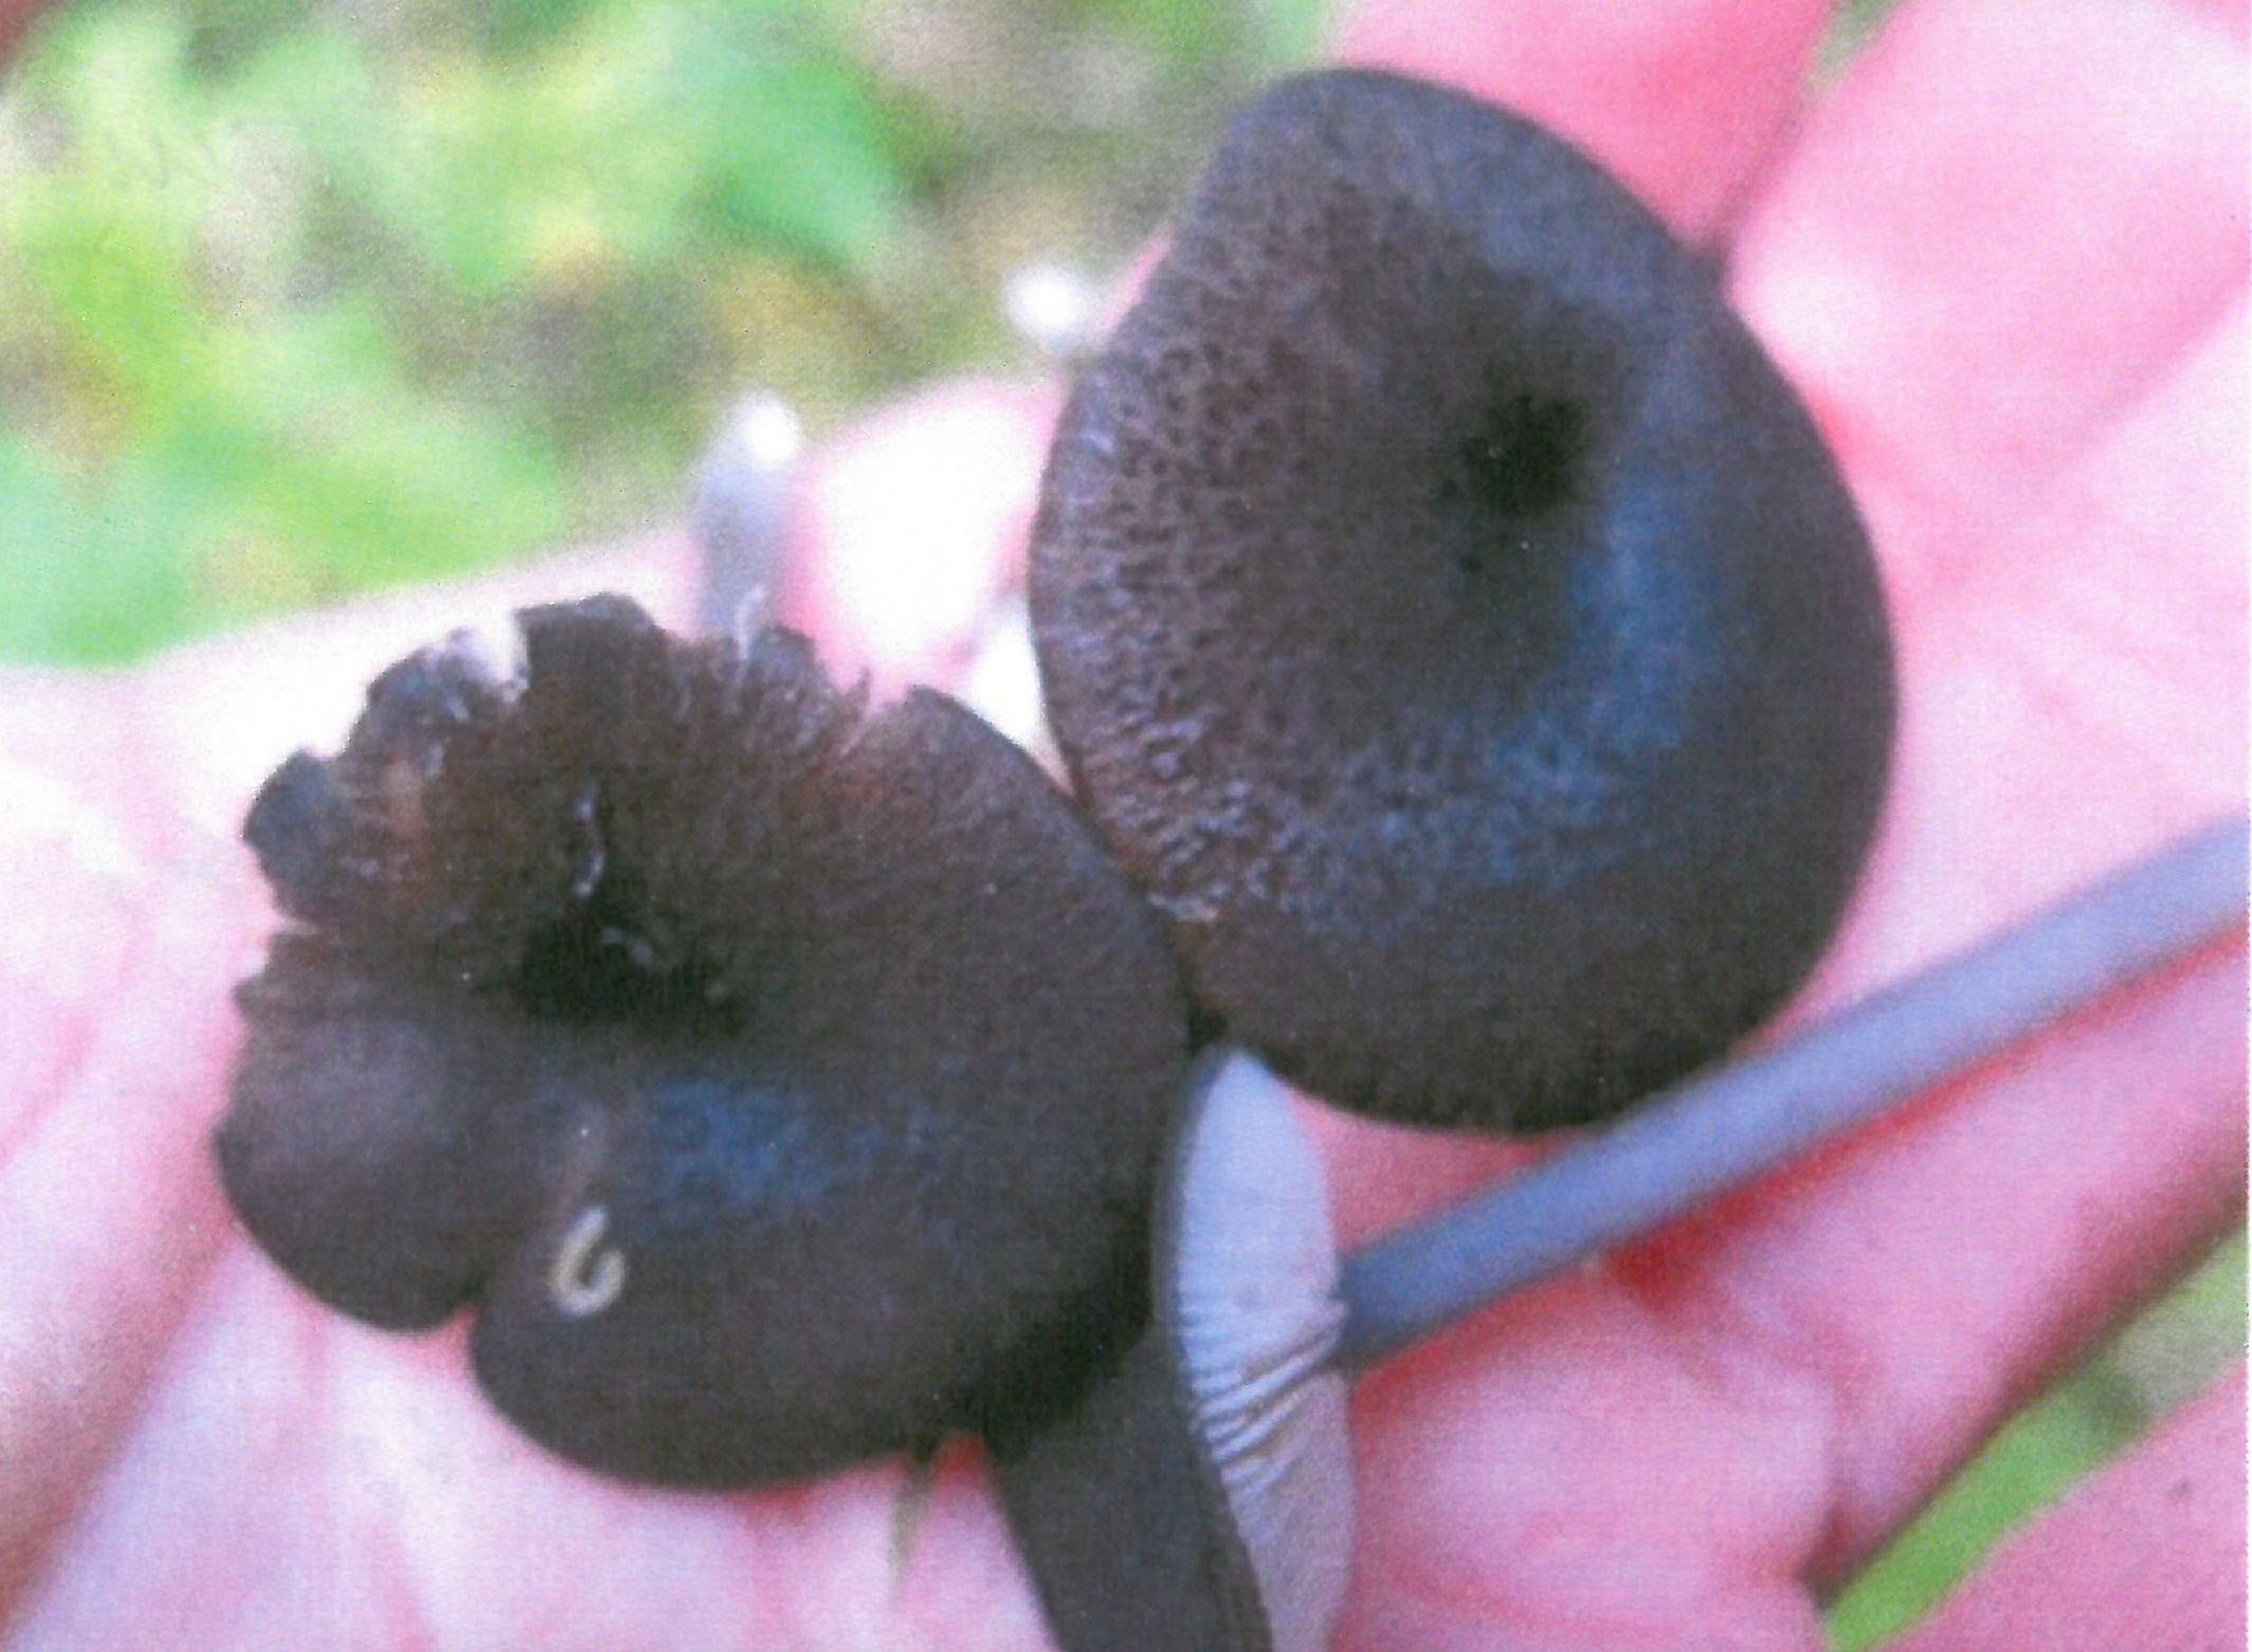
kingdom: Fungi
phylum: Basidiomycota
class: Agaricomycetes
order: Agaricales
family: Entolomataceae
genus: Entoloma
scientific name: Entoloma alvarense
